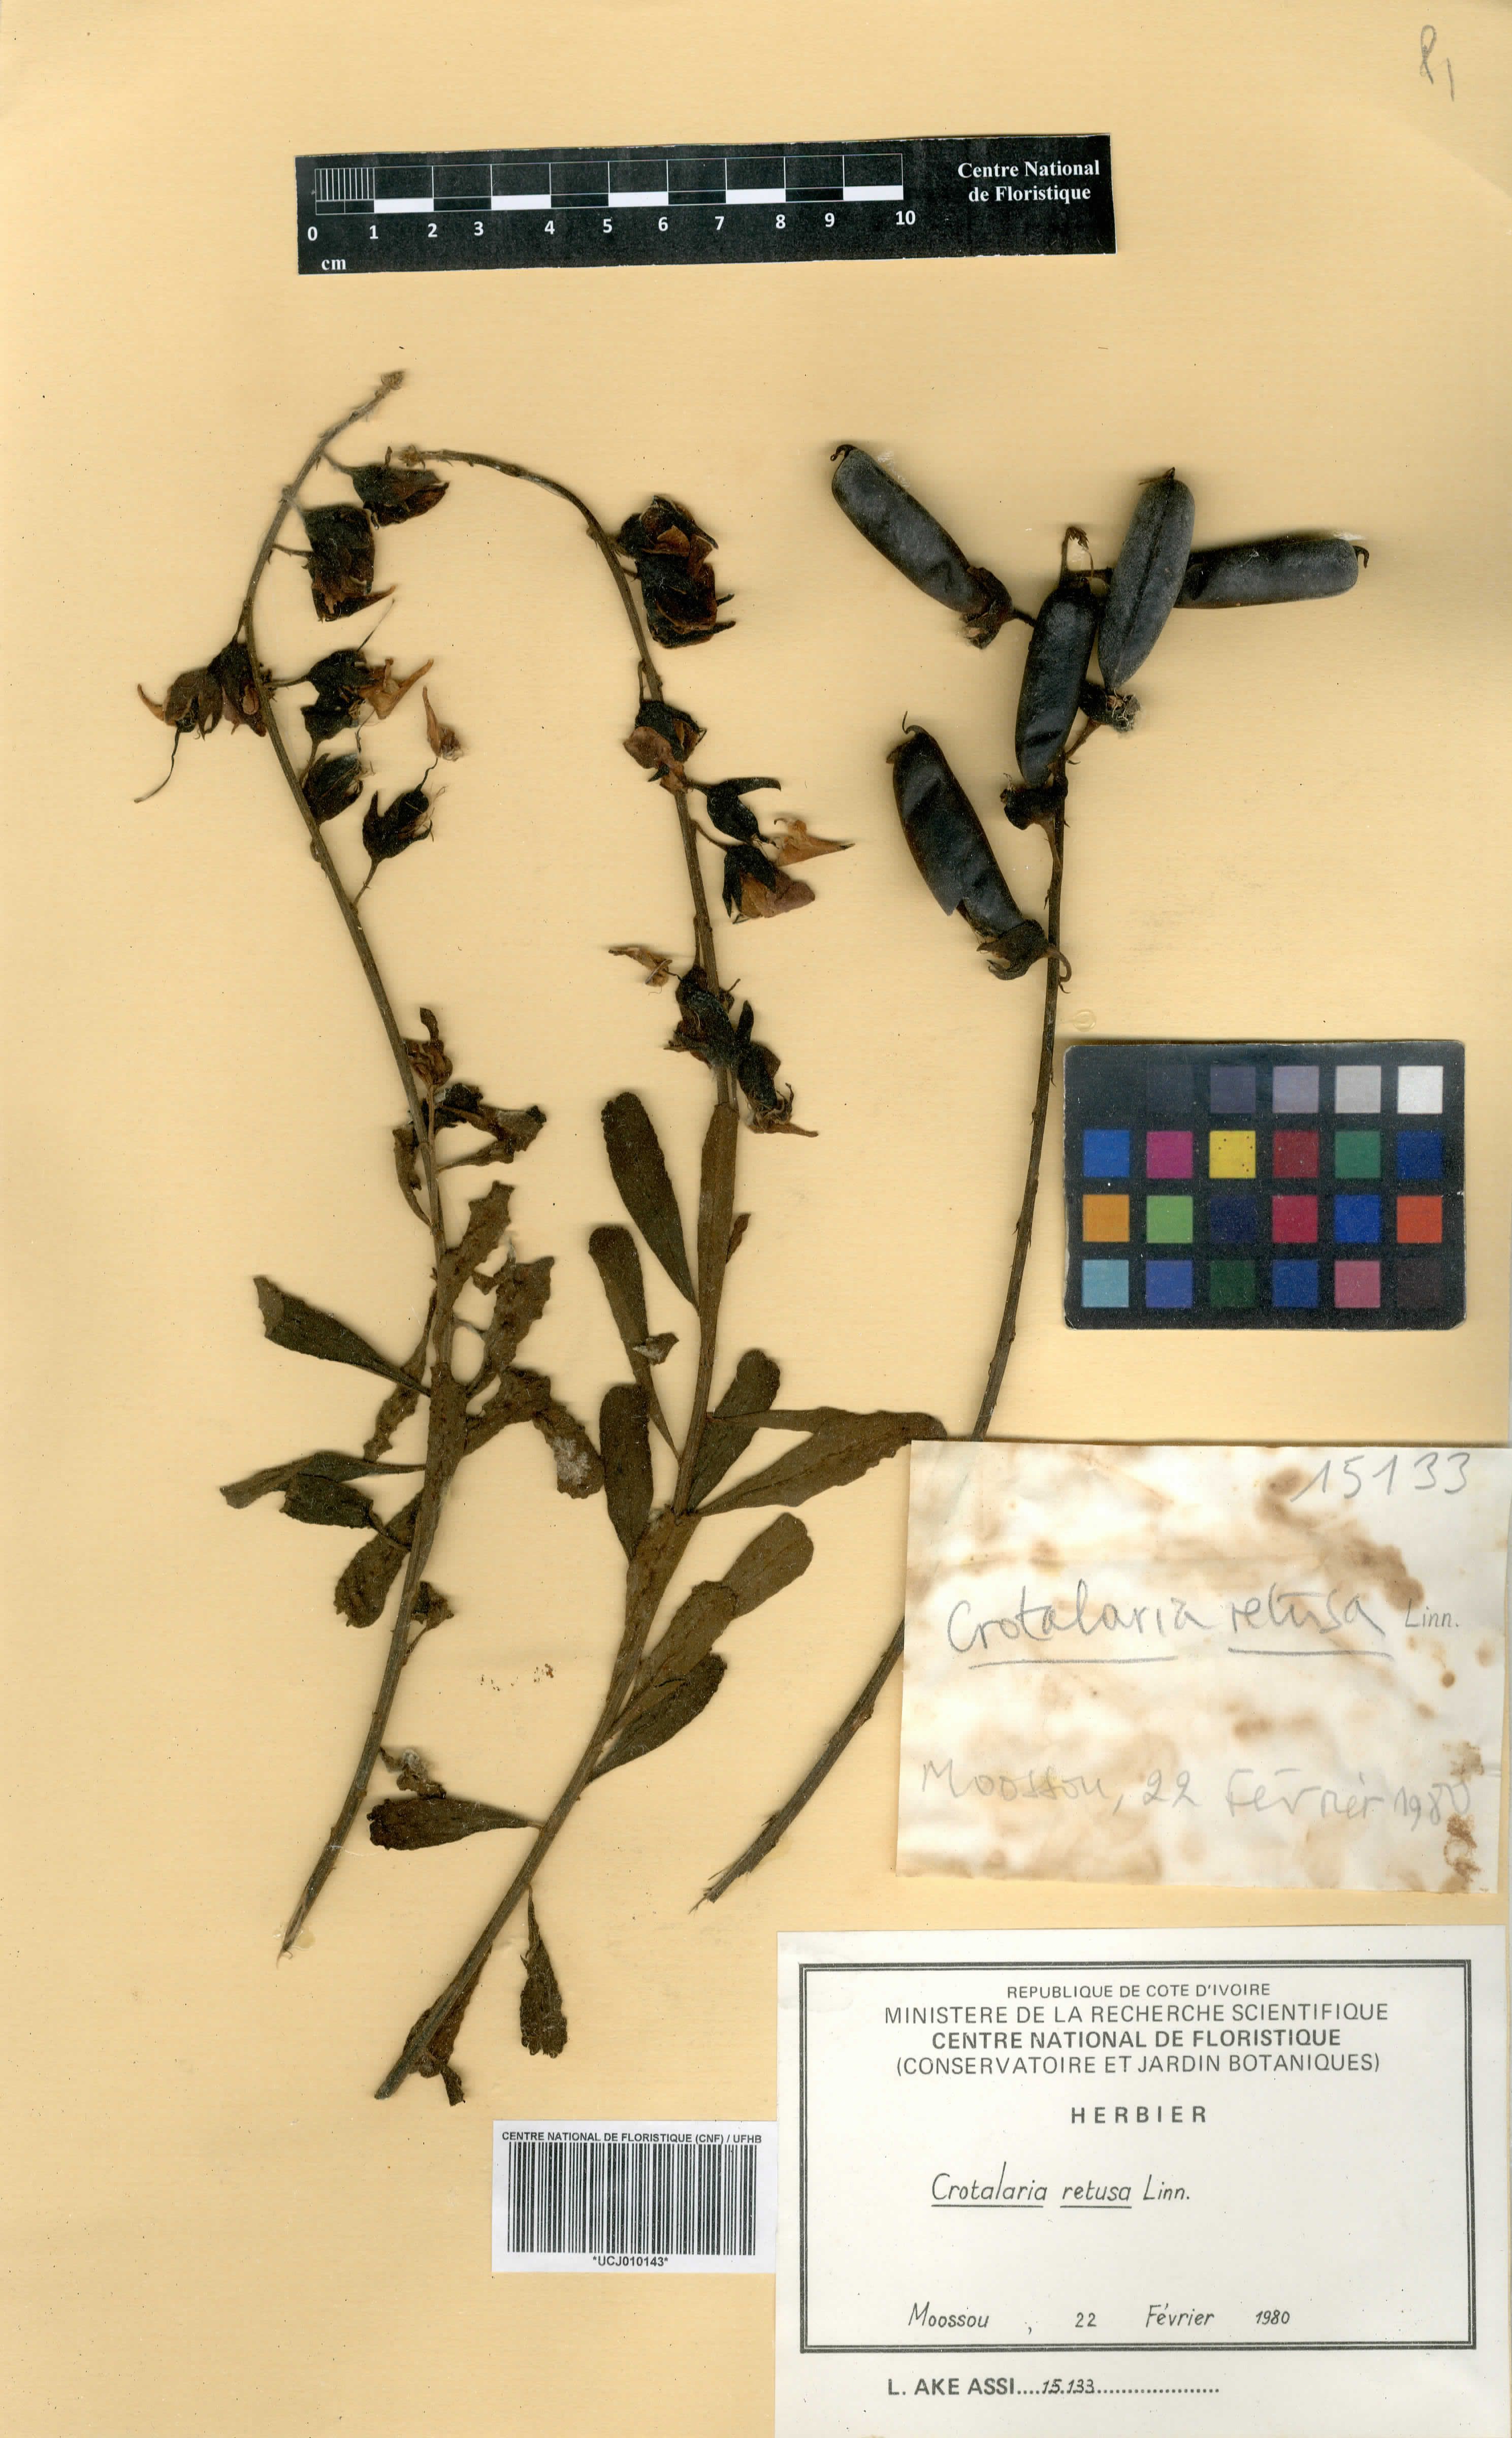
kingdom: Plantae
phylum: Tracheophyta
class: Magnoliopsida
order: Fabales
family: Fabaceae
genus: Crotalaria
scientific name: Crotalaria retusa
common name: Rattleweed
